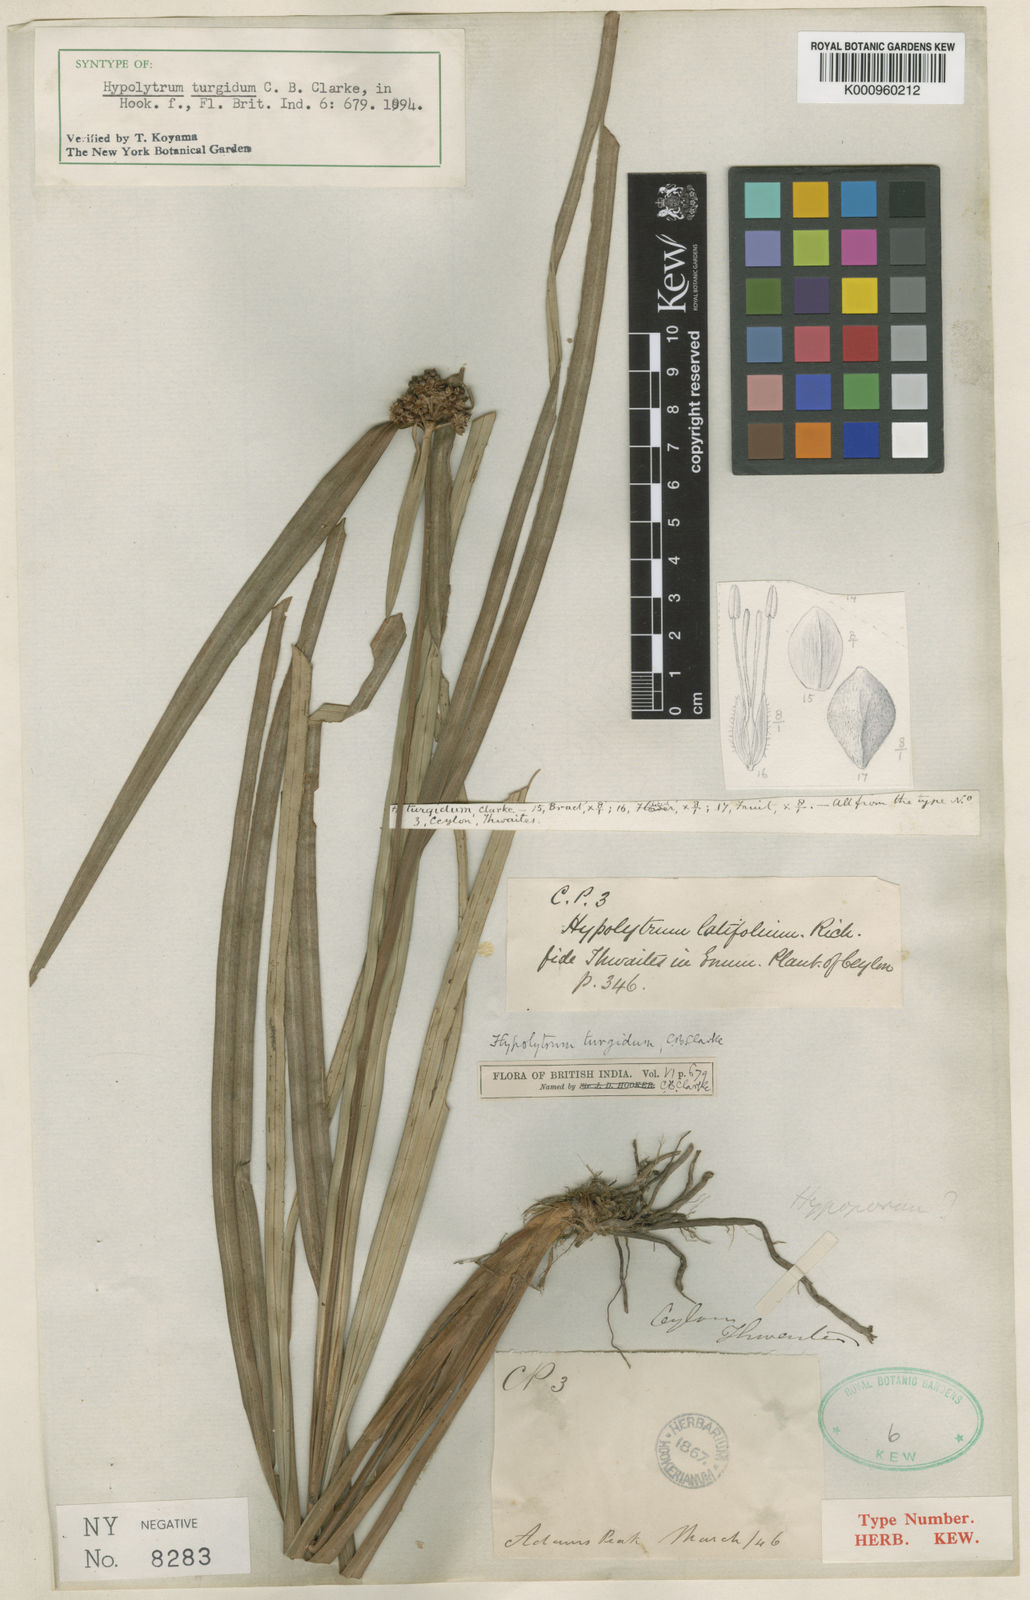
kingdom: Plantae
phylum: Tracheophyta
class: Liliopsida
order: Poales
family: Cyperaceae
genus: Hypolytrum
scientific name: Hypolytrum longirostre
